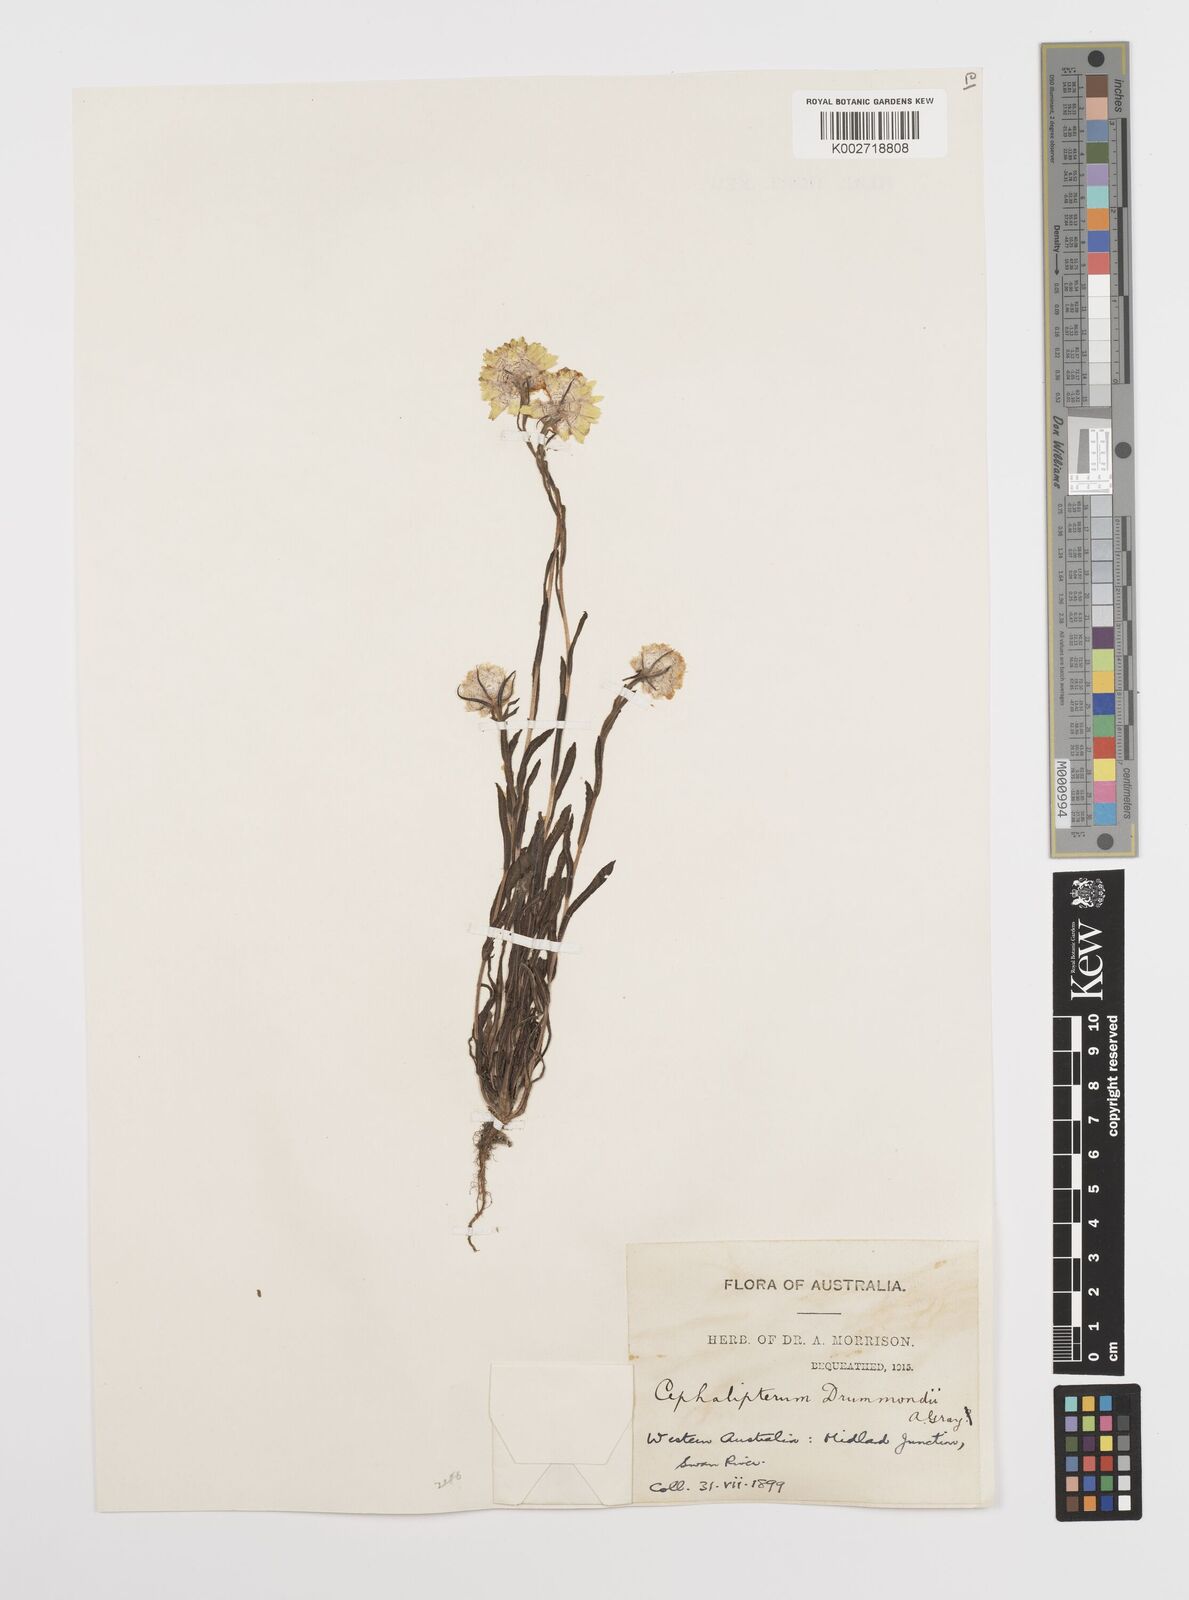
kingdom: Plantae
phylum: Tracheophyta
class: Magnoliopsida
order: Asterales
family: Asteraceae
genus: Cephalipterum
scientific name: Cephalipterum drummondii
